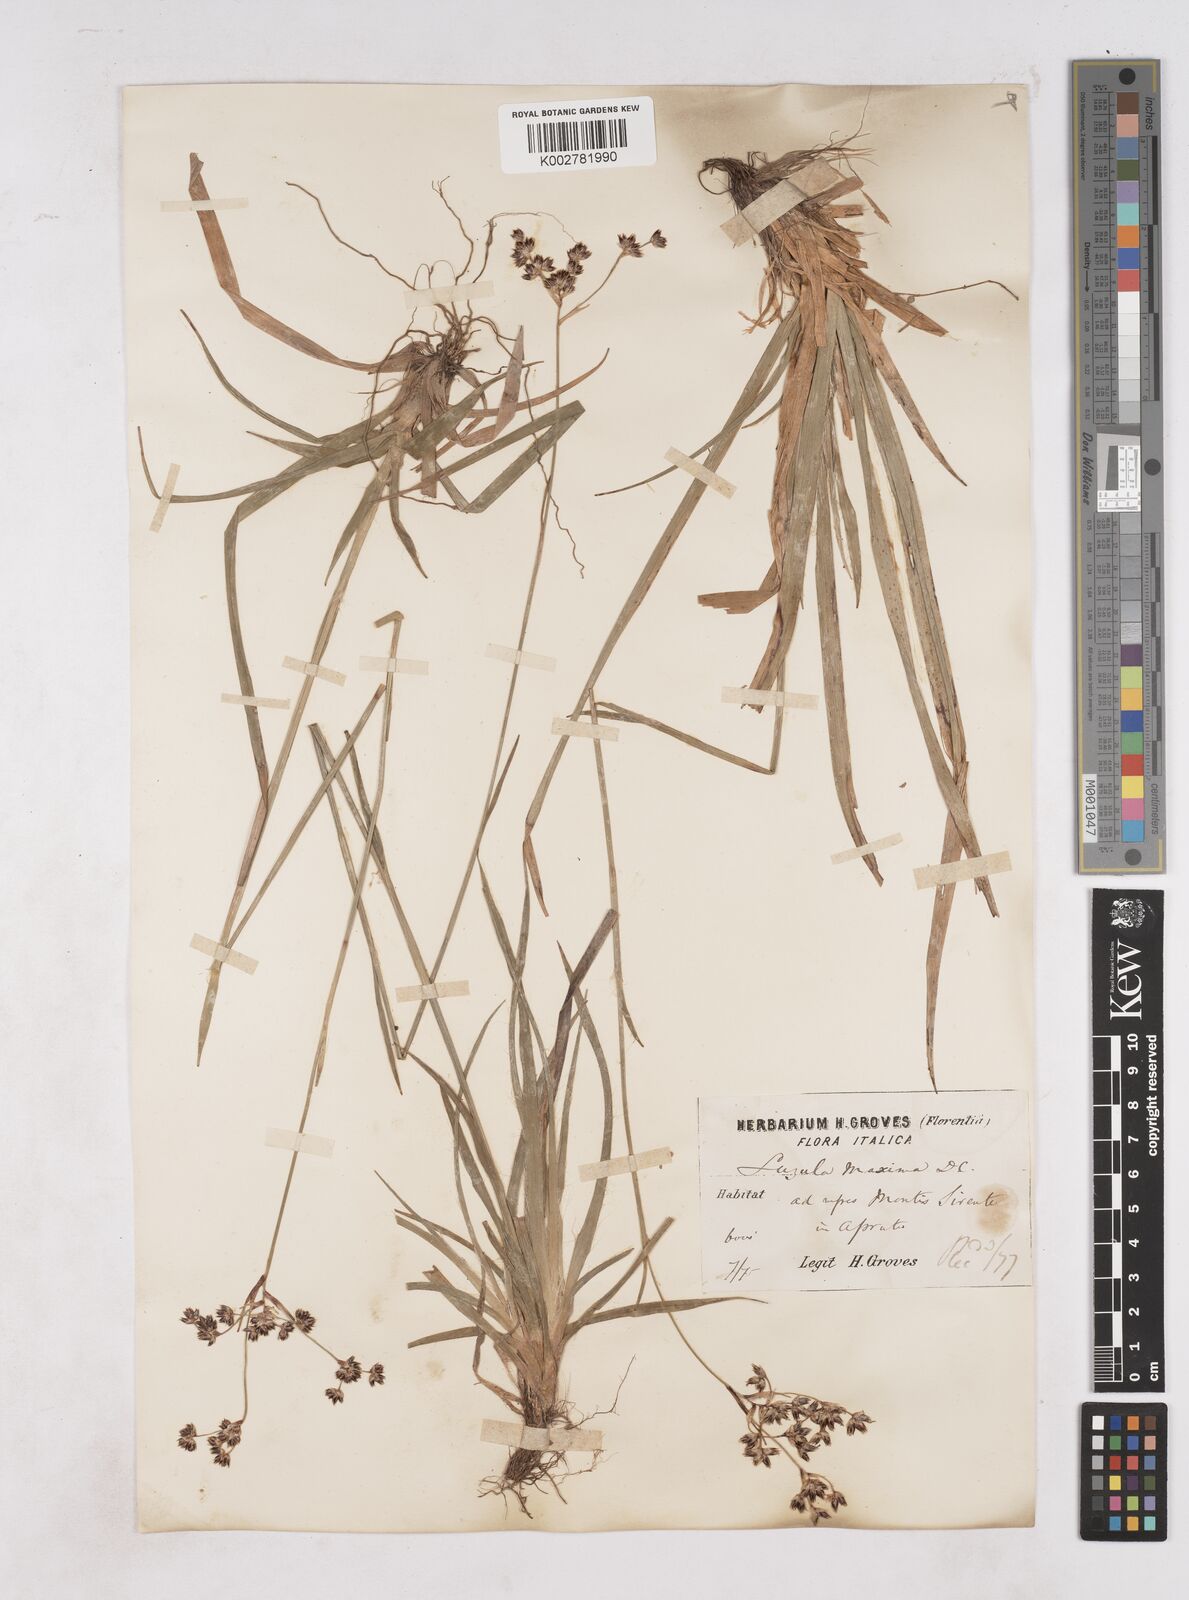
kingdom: Plantae
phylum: Tracheophyta
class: Liliopsida
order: Poales
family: Juncaceae
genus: Luzula
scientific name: Luzula sylvatica
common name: Great wood-rush
